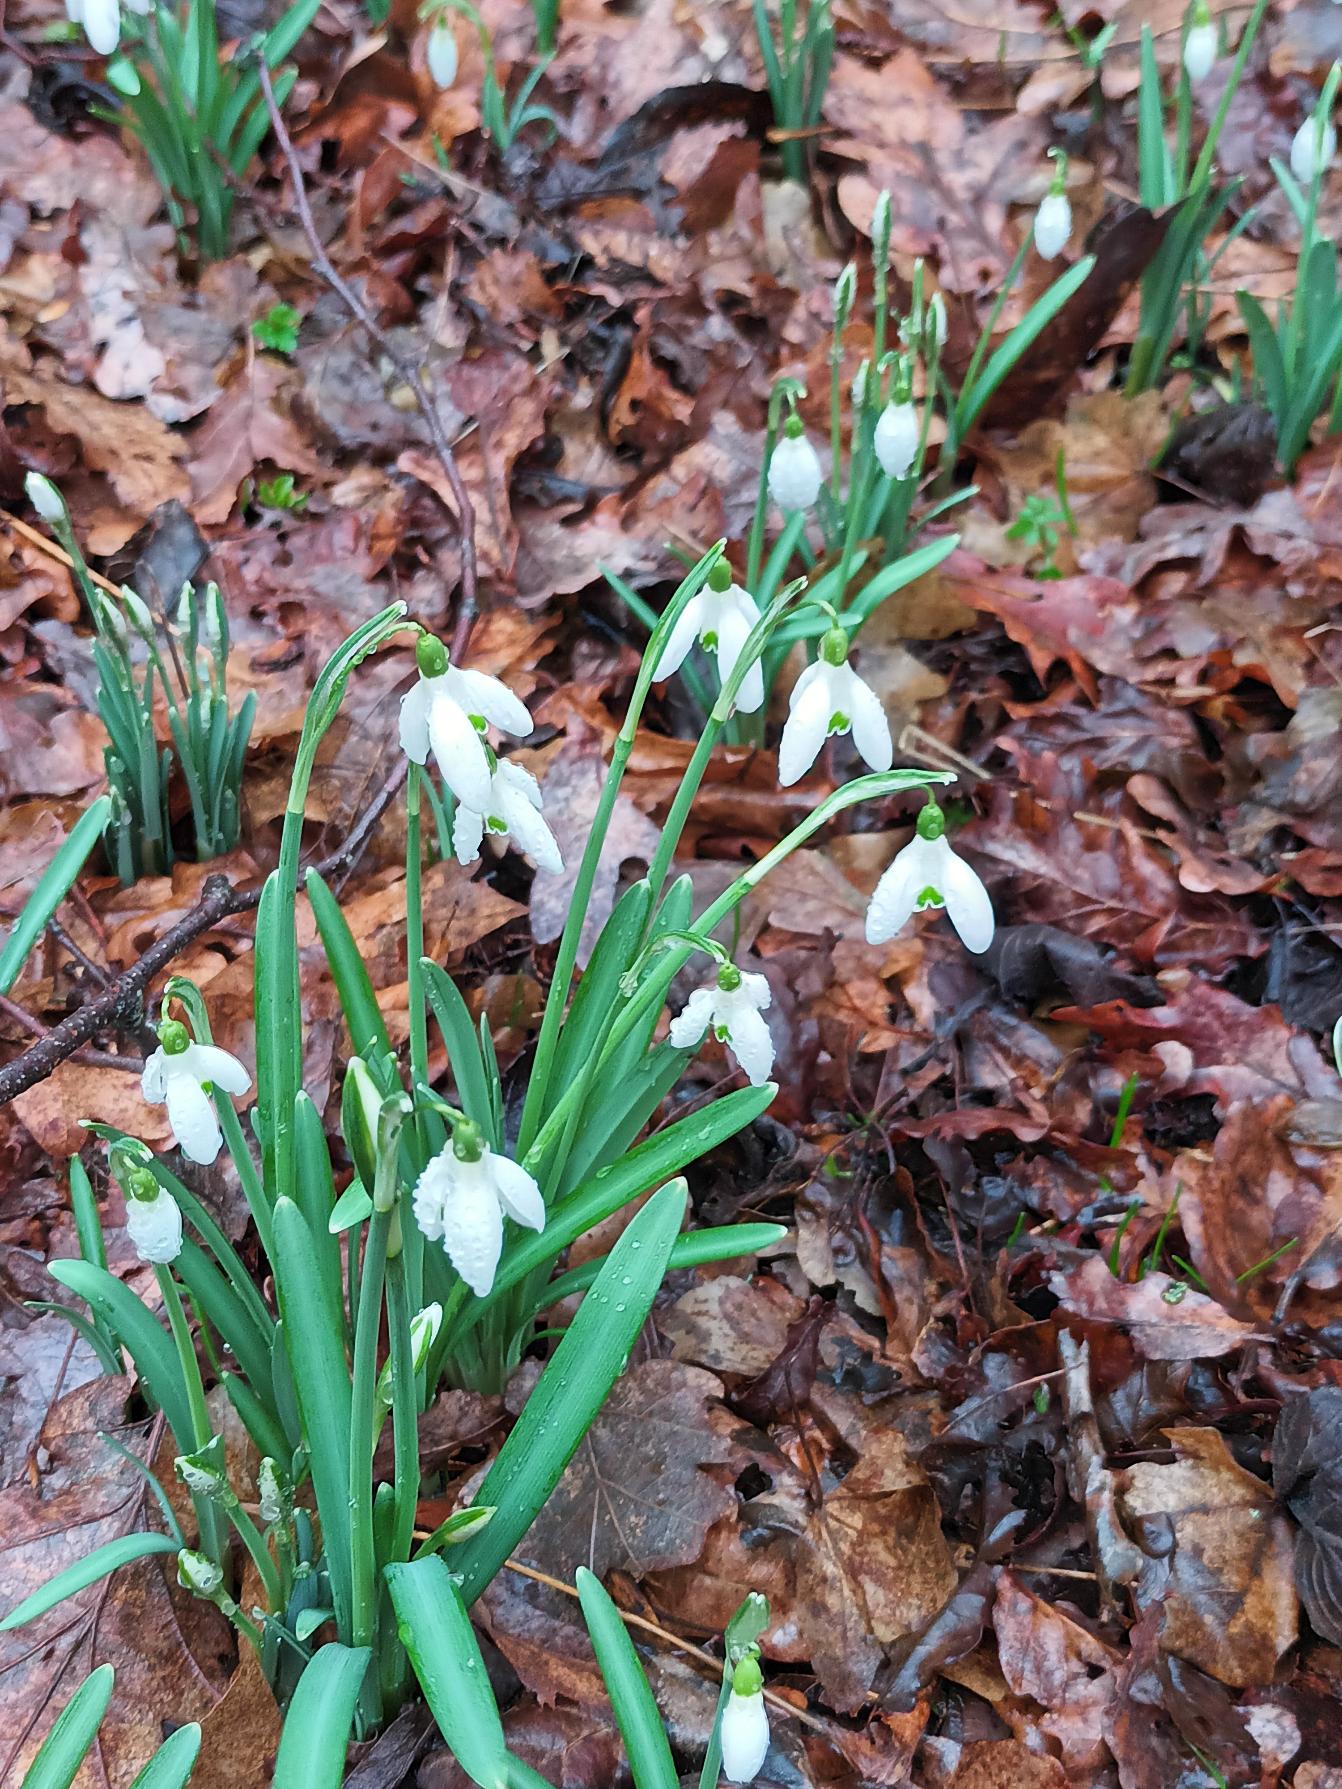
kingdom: Plantae
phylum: Tracheophyta
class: Liliopsida
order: Asparagales
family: Amaryllidaceae
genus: Galanthus
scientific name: Galanthus nivalis
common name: Vintergæk
